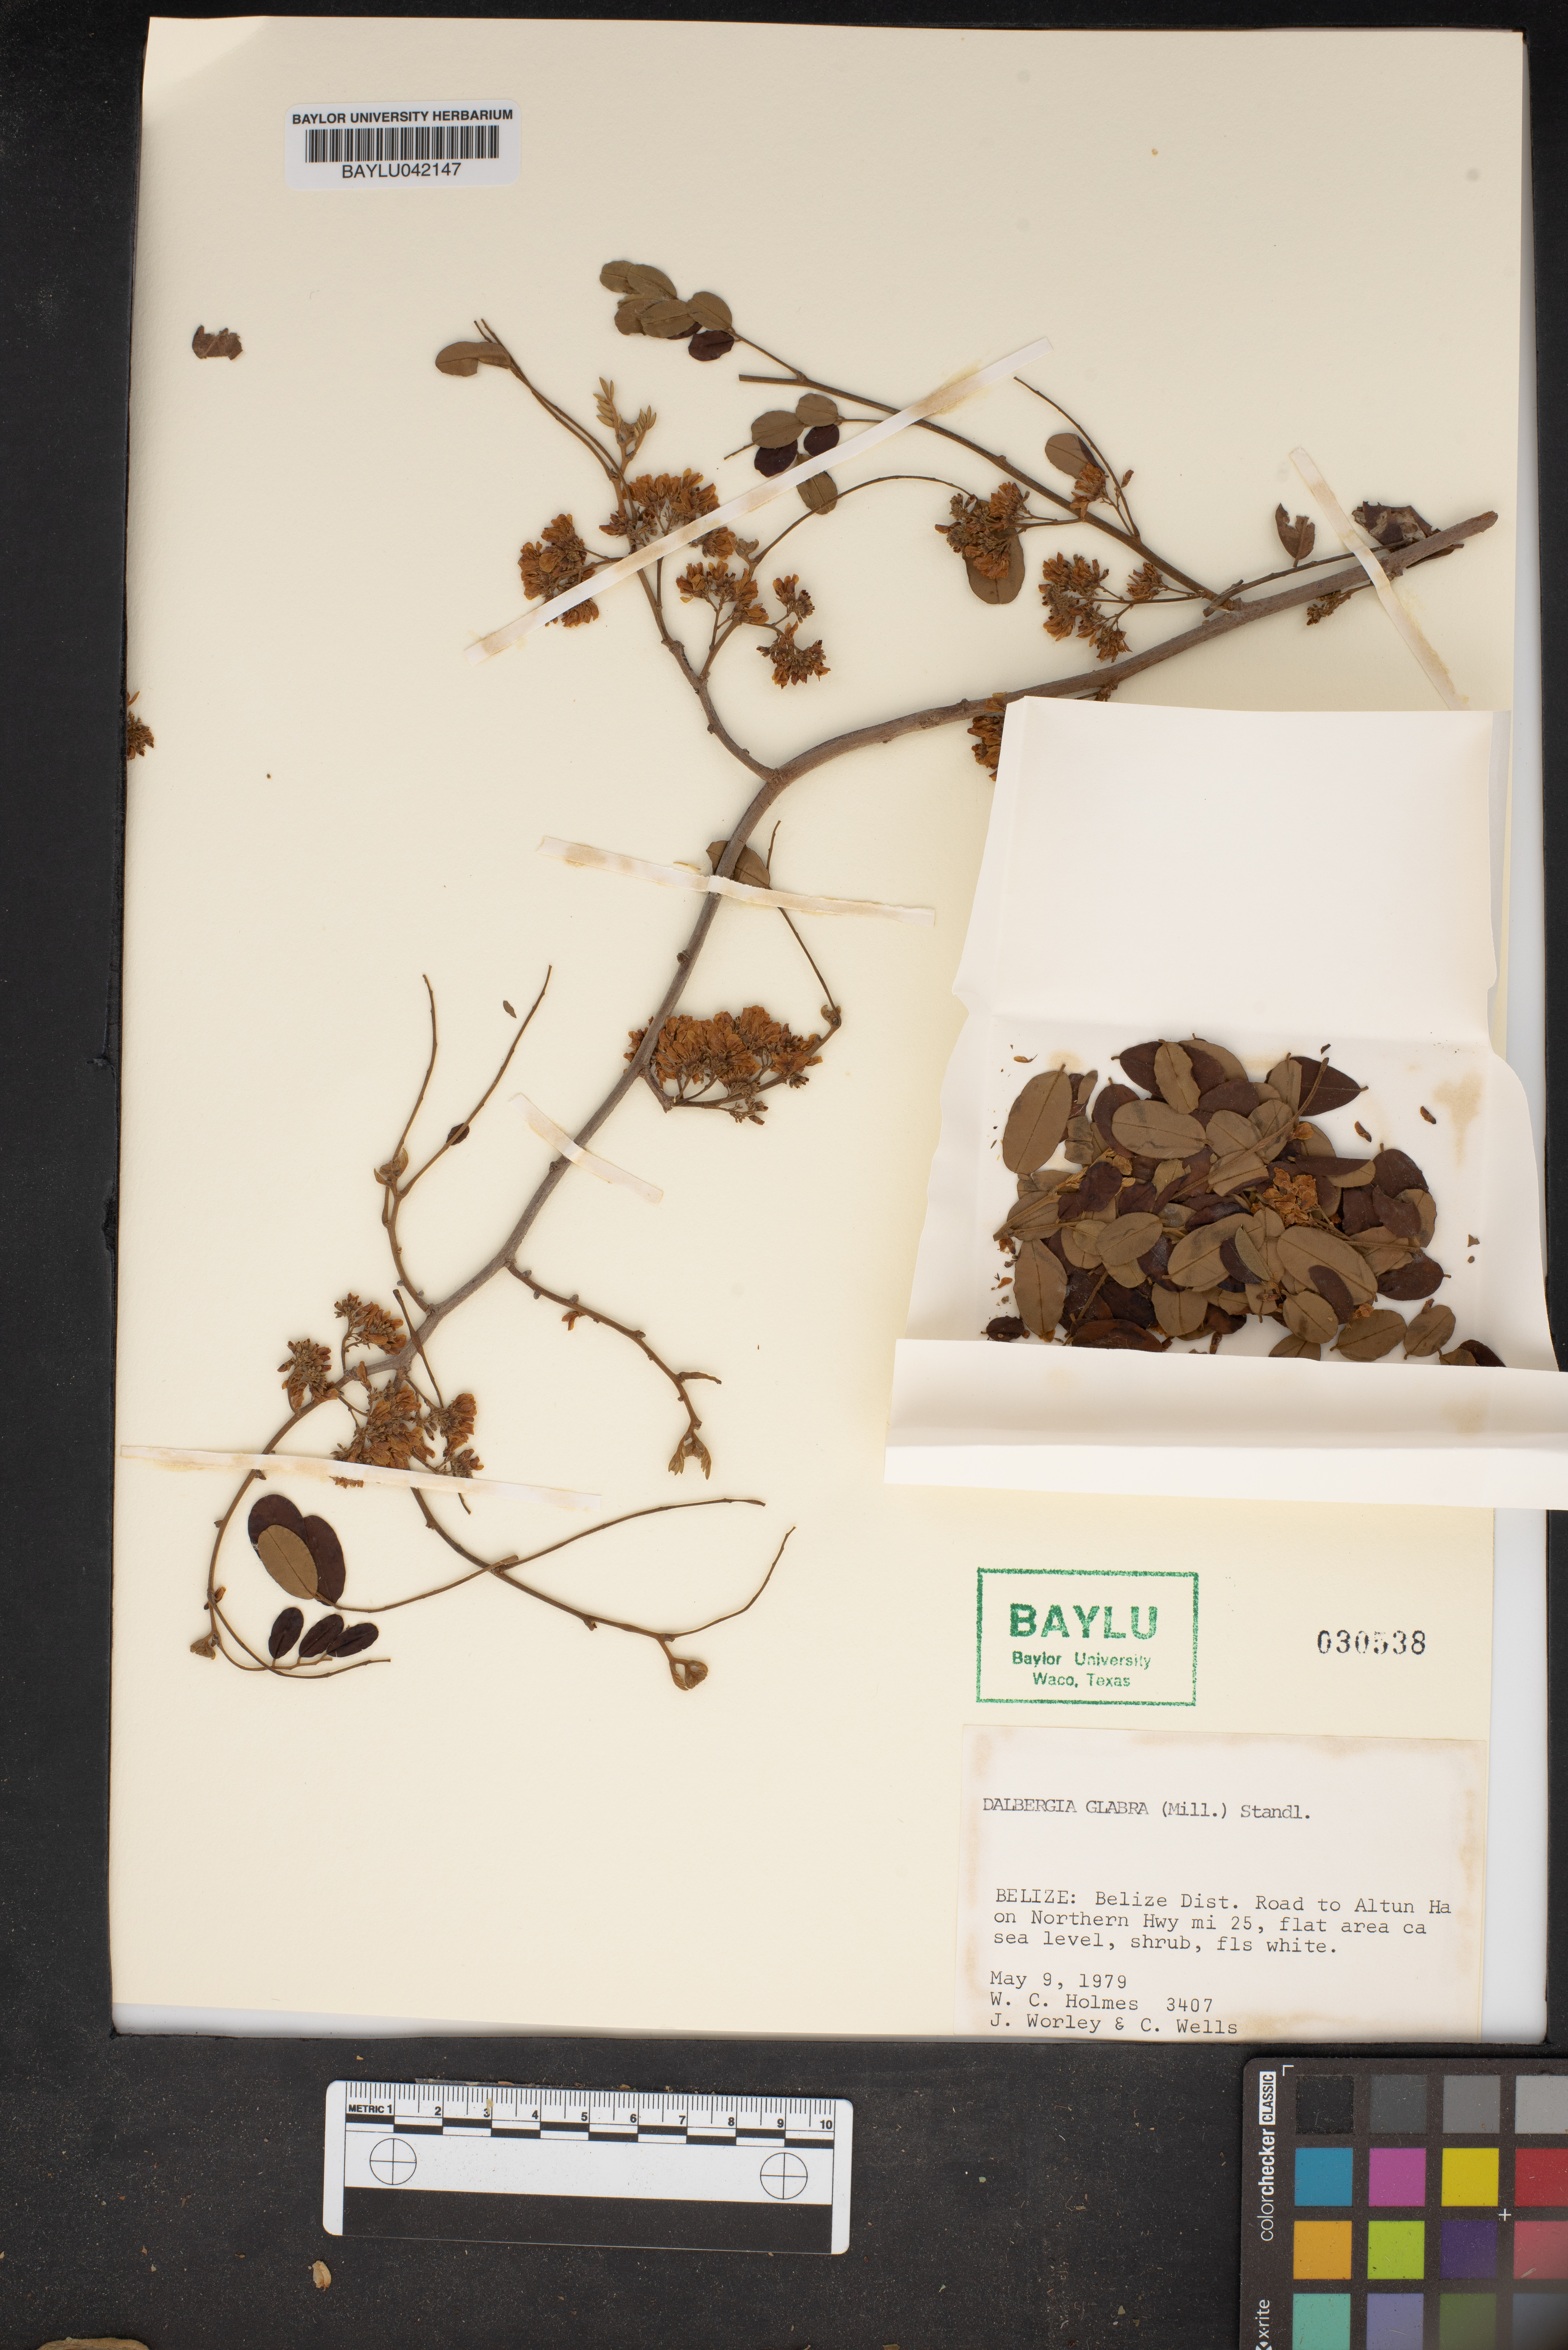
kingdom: Plantae
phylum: Tracheophyta
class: Magnoliopsida
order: Fabales
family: Fabaceae
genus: Dalbergia
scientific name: Dalbergia glabra
